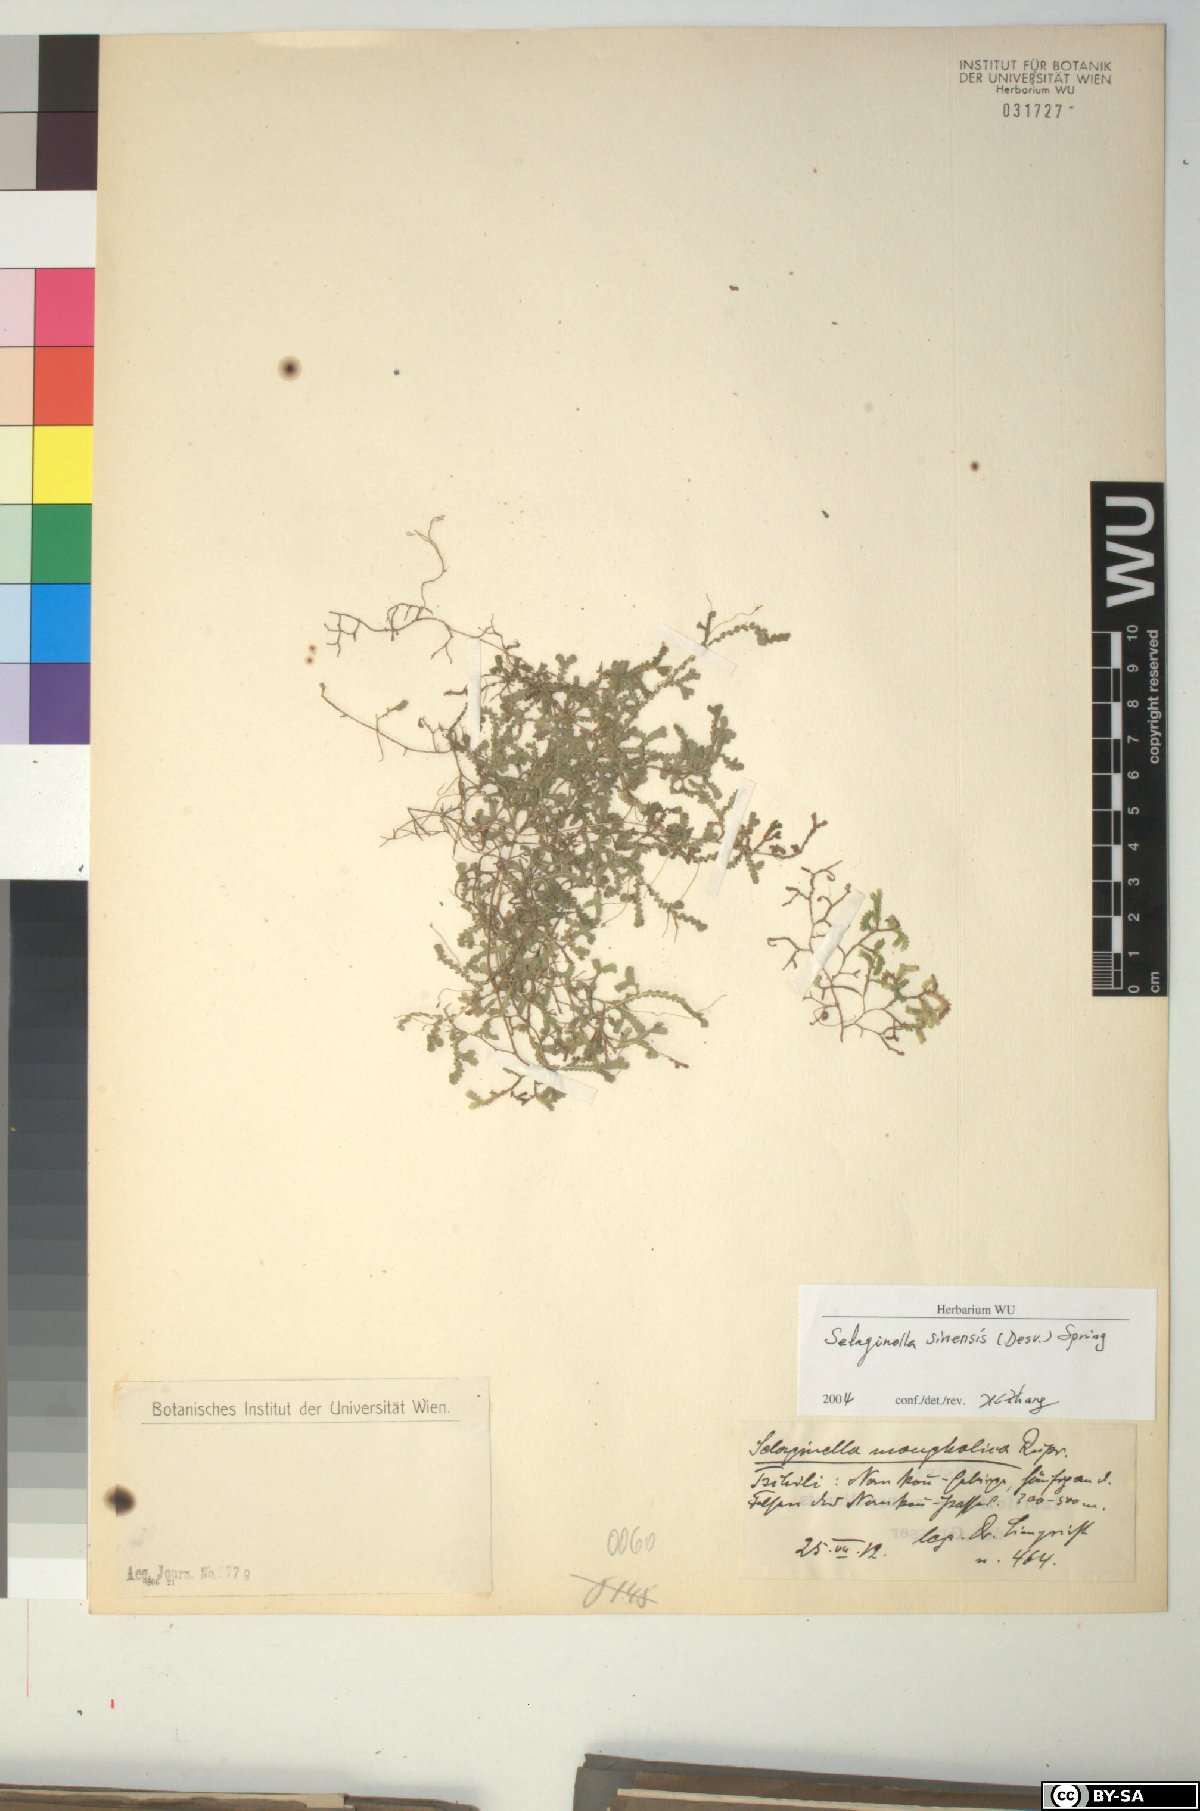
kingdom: Plantae
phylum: Tracheophyta
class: Lycopodiopsida
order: Selaginellales
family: Selaginellaceae
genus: Selaginella
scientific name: Selaginella sinensis
